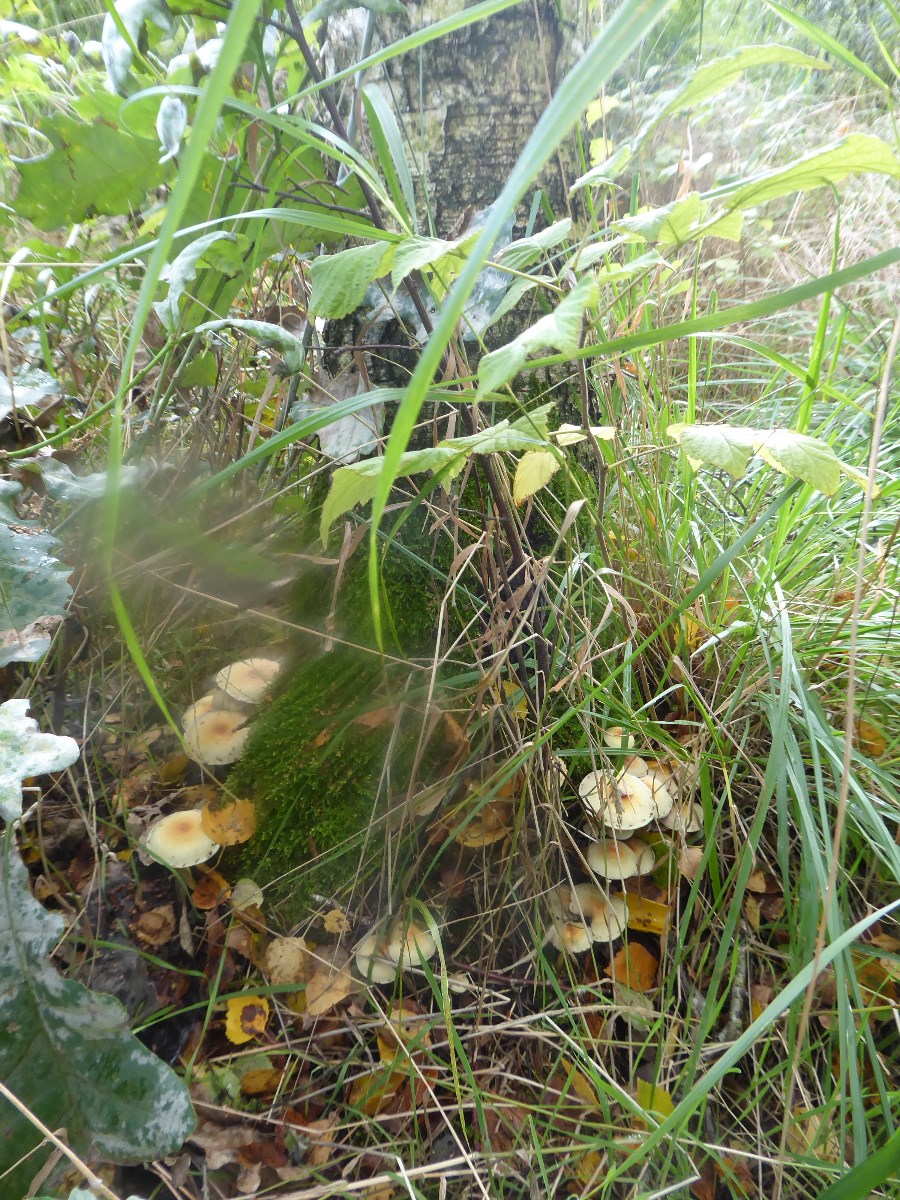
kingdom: Fungi
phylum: Basidiomycota
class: Agaricomycetes
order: Agaricales
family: Strophariaceae
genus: Hypholoma
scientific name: Hypholoma fasciculare
